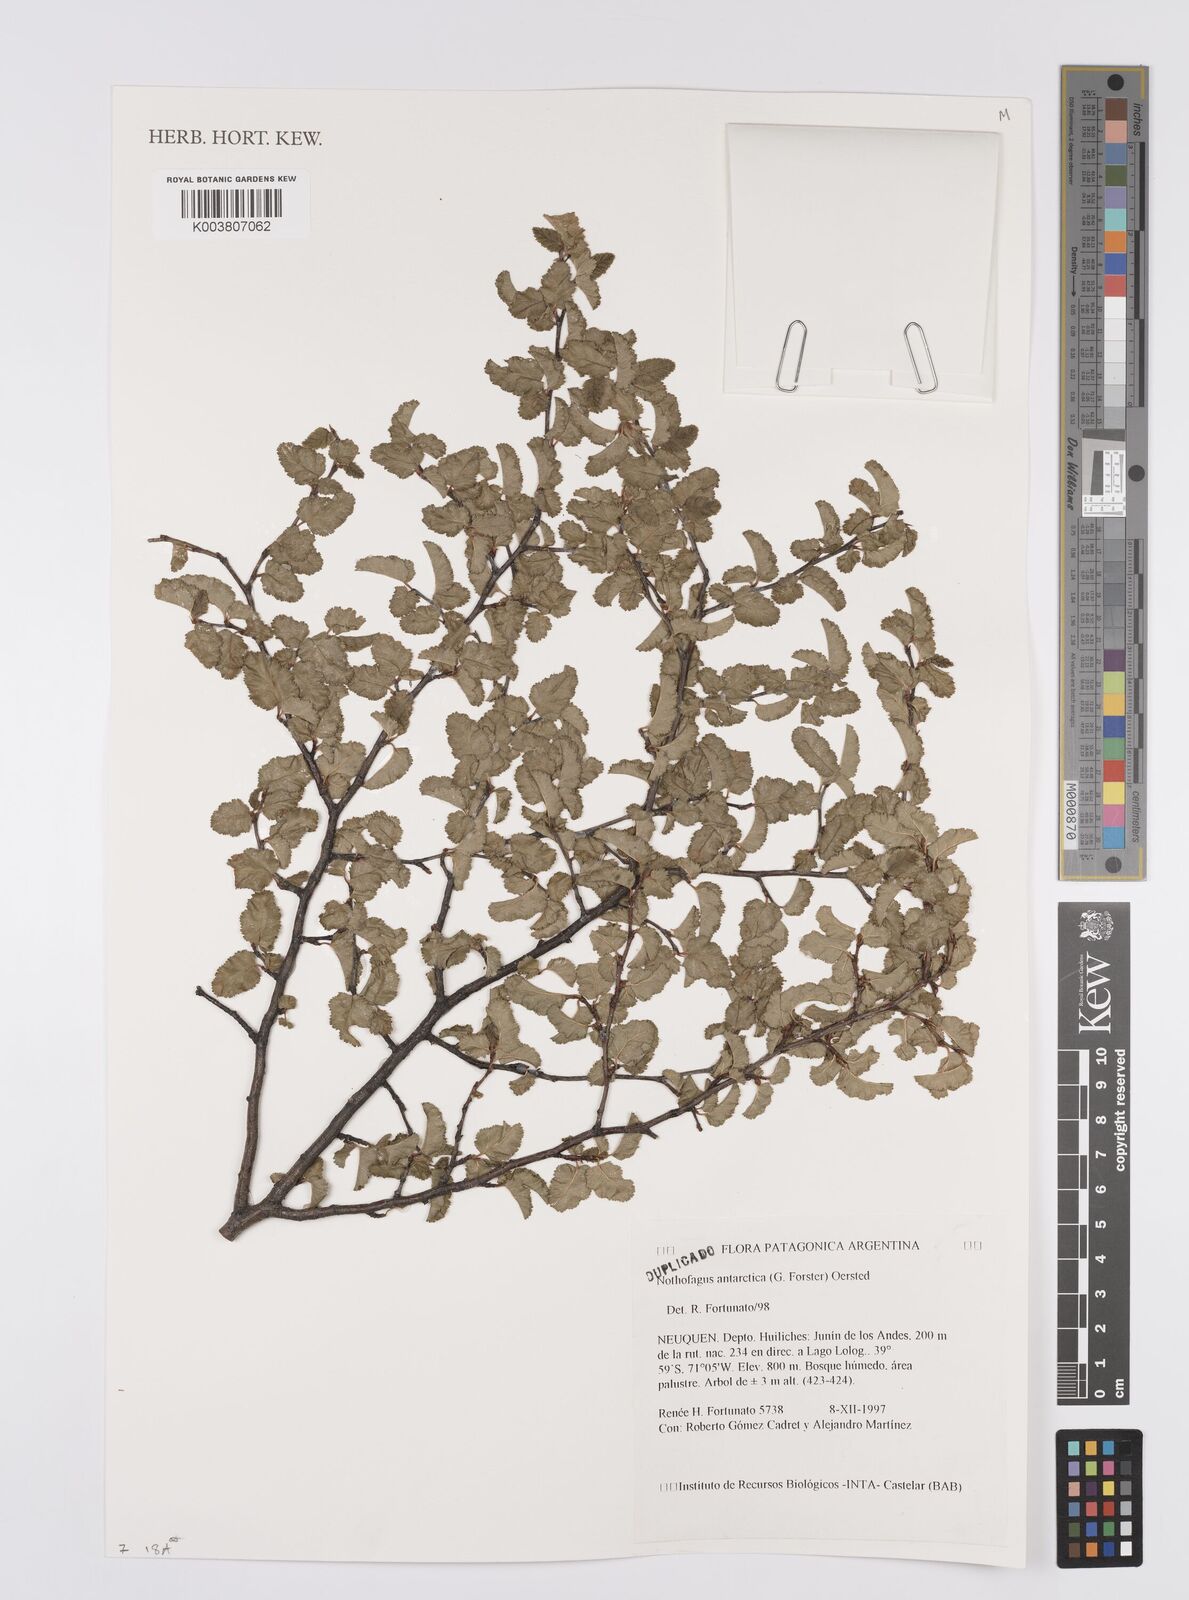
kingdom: Plantae
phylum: Tracheophyta
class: Magnoliopsida
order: Fagales
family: Nothofagaceae
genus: Nothofagus
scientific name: Nothofagus antarctica
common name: Antarctic beech
